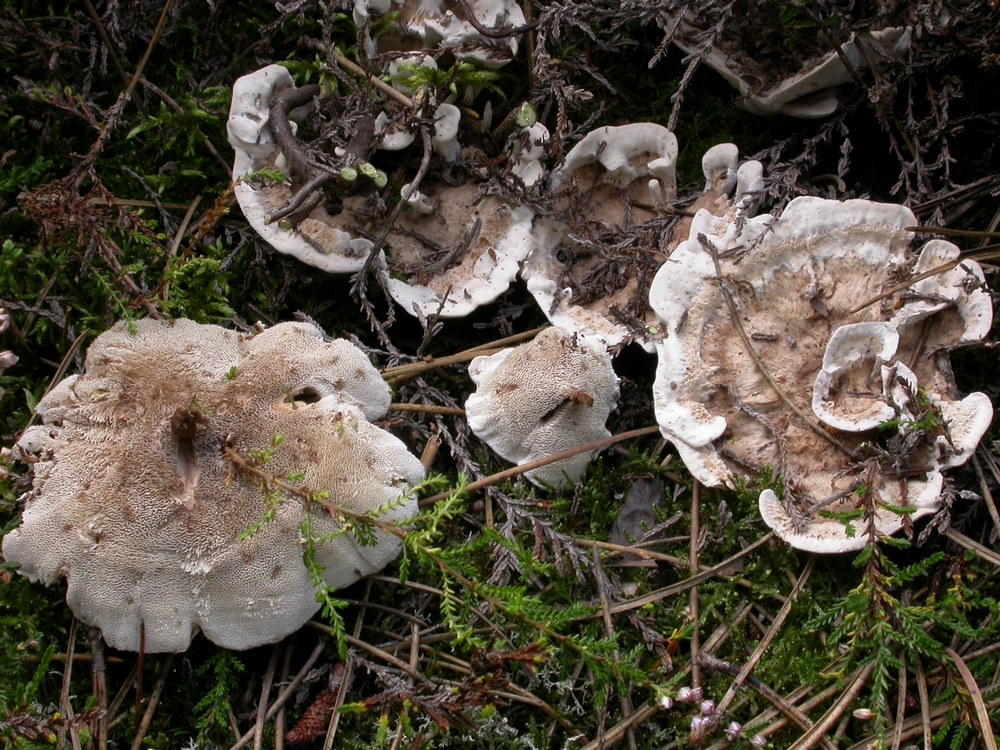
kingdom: Fungi
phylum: Basidiomycota
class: Agaricomycetes
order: Thelephorales
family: Thelephoraceae
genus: Phellodon
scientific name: Phellodon tomentosus
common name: tragtformet duftpigsvamp
